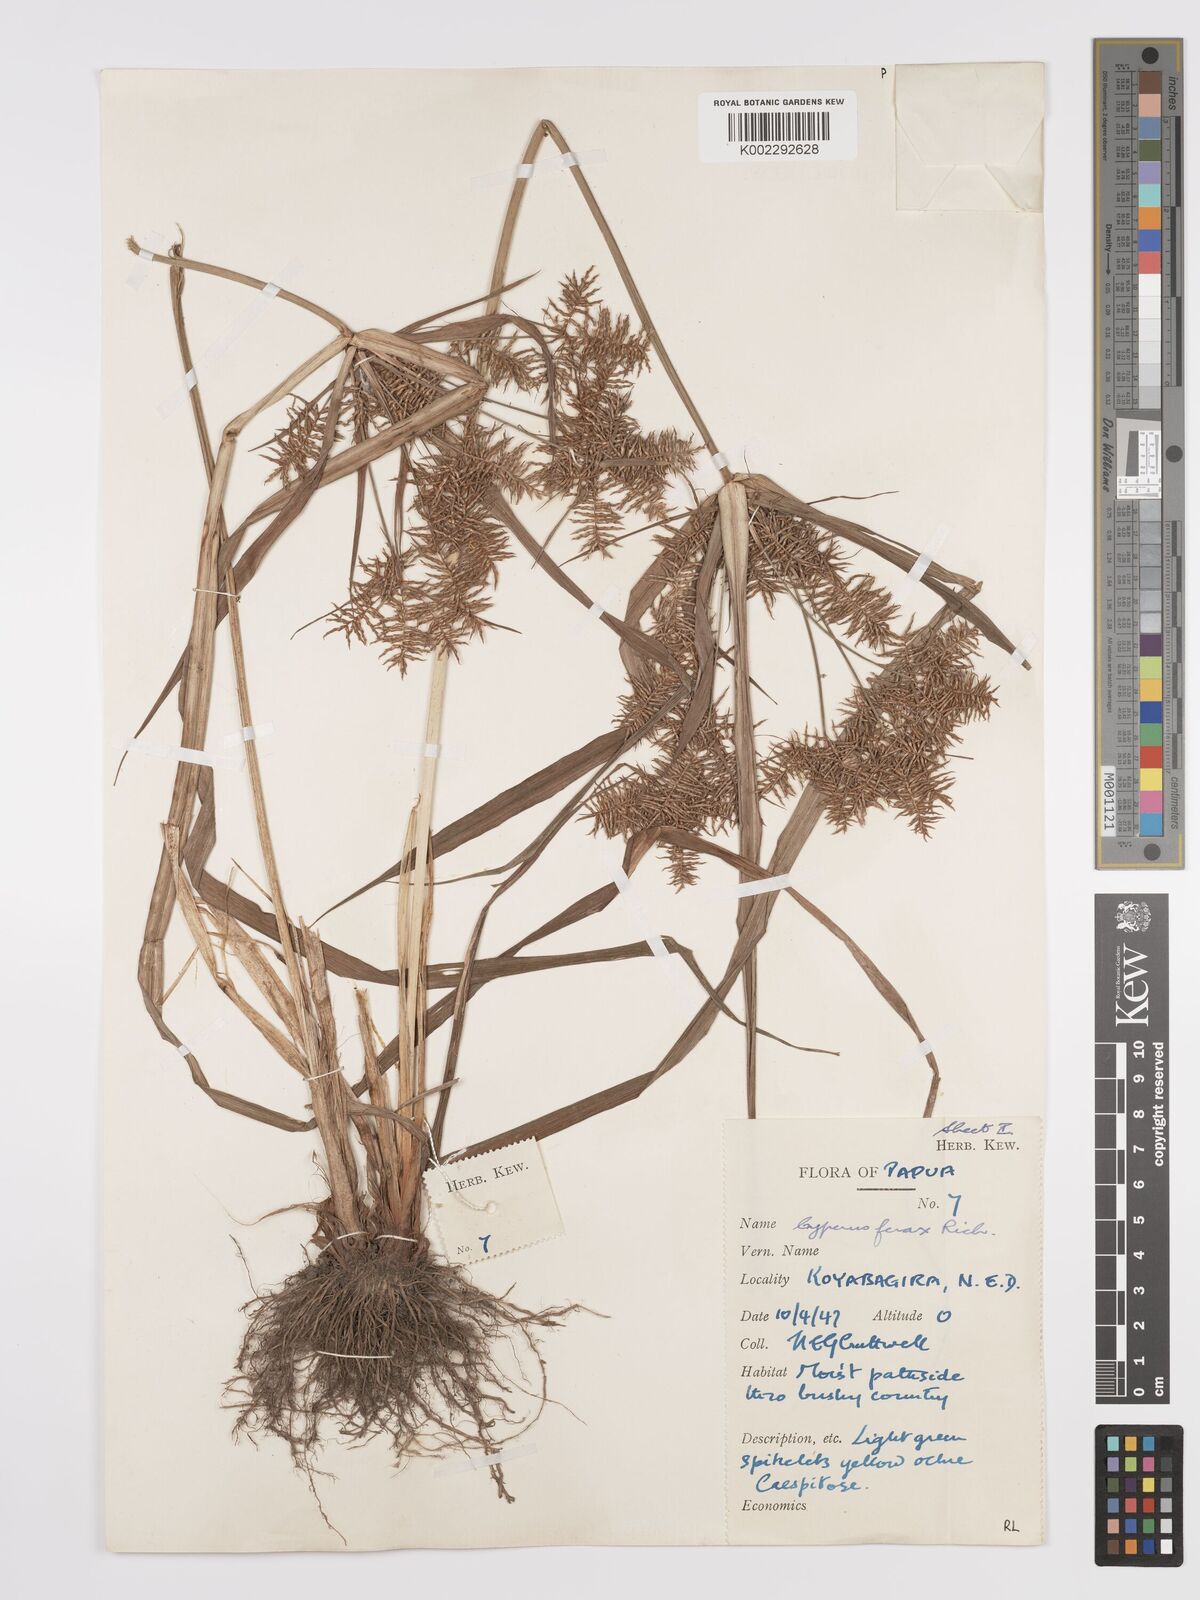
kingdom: Plantae
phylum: Tracheophyta
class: Liliopsida
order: Poales
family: Cyperaceae
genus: Cyperus
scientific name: Cyperus odoratus
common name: Fragrant flatsedge
